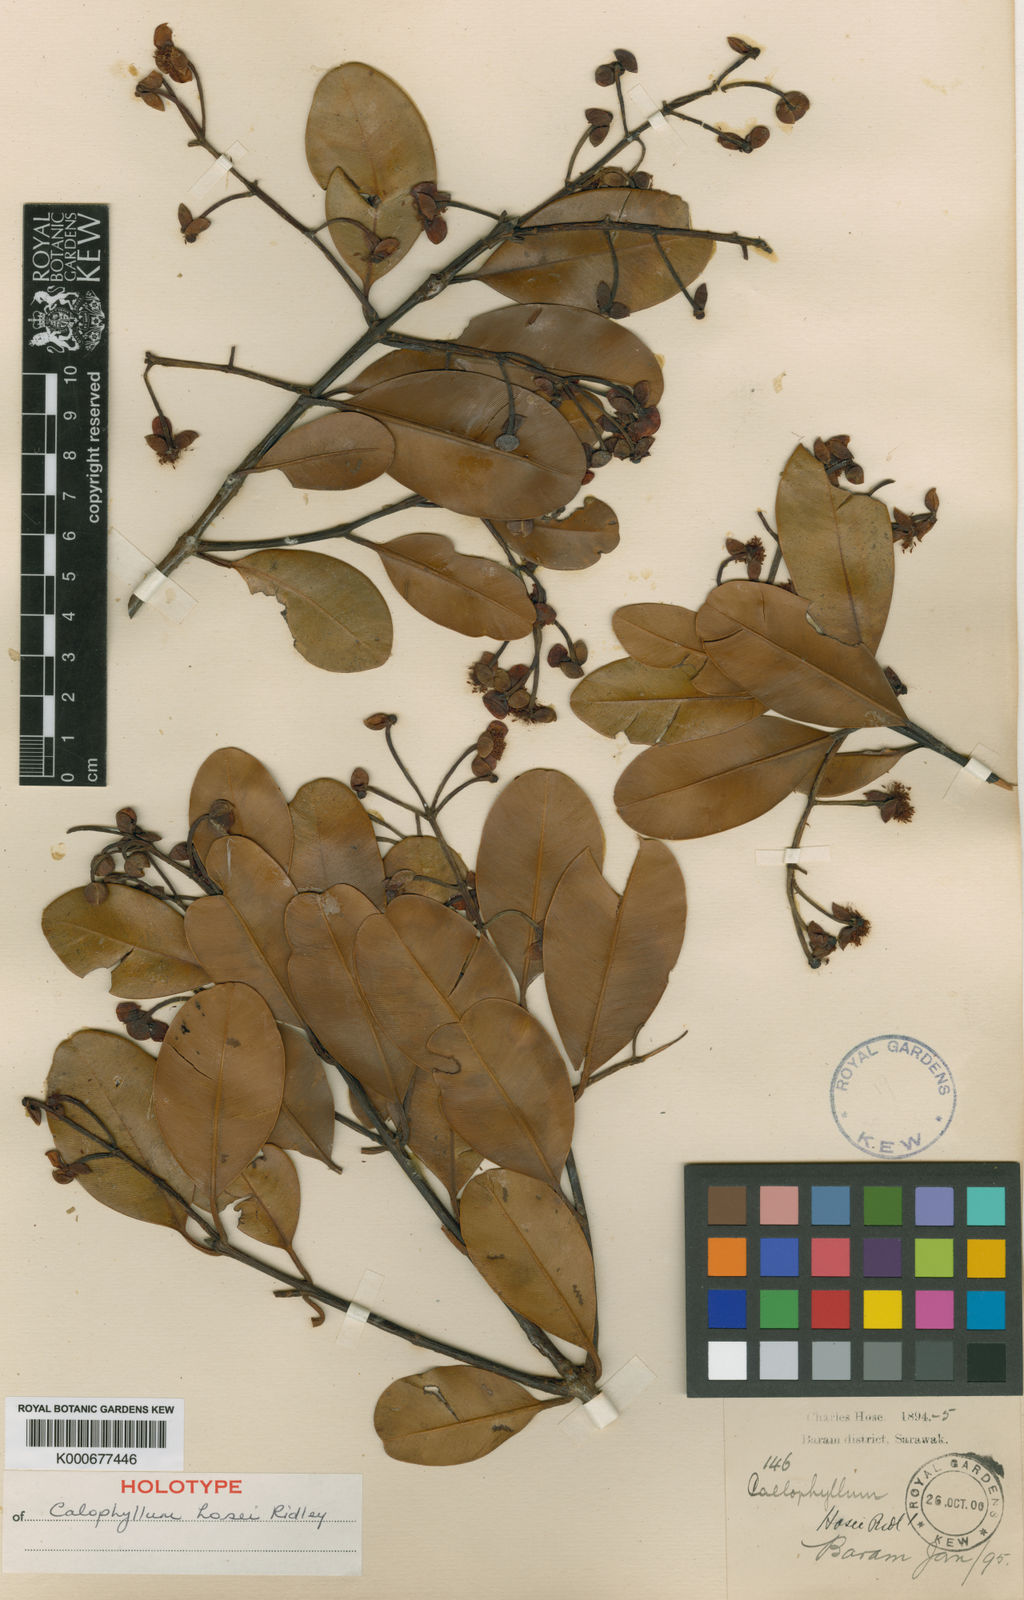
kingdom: Plantae
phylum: Tracheophyta
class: Magnoliopsida
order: Malpighiales
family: Calophyllaceae
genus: Calophyllum
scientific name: Calophyllum hosei
